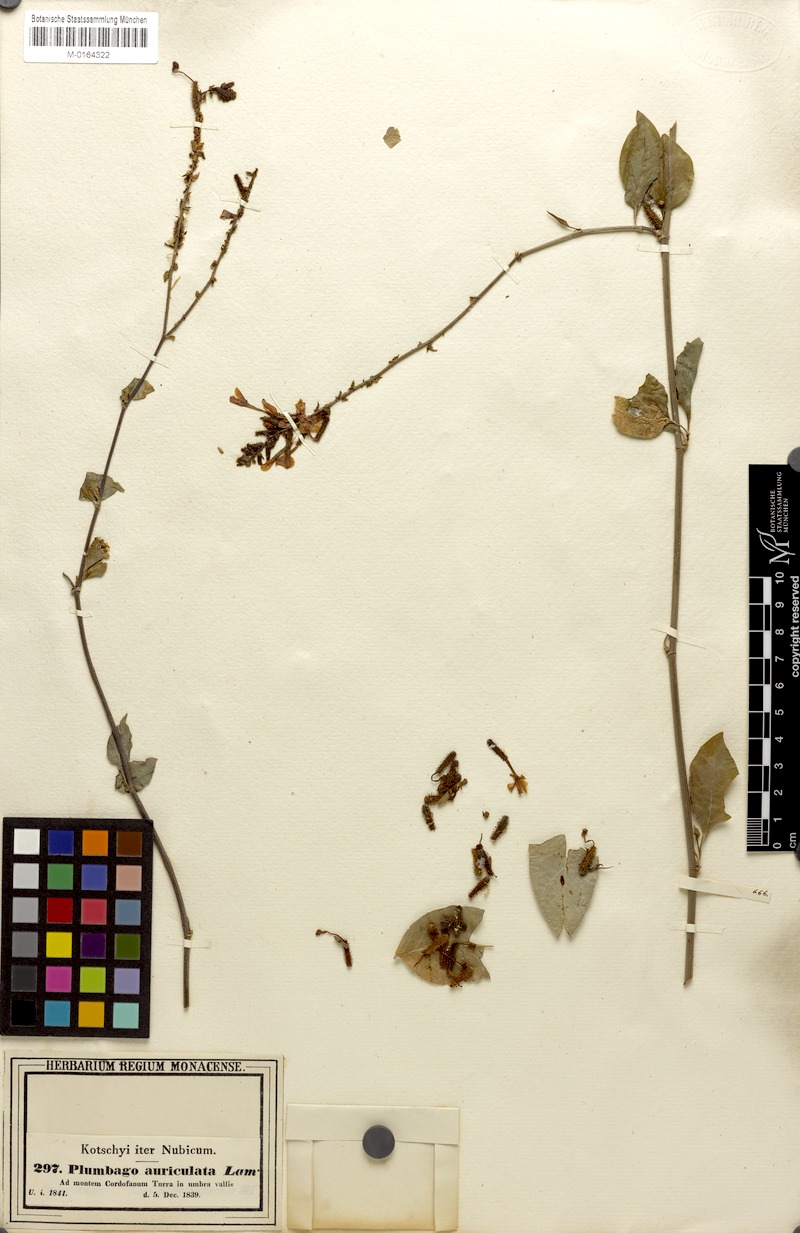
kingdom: Plantae
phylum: Tracheophyta
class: Magnoliopsida
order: Caryophyllales
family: Plumbaginaceae
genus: Plumbago
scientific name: Plumbago zeylanica
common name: Doctorbush
